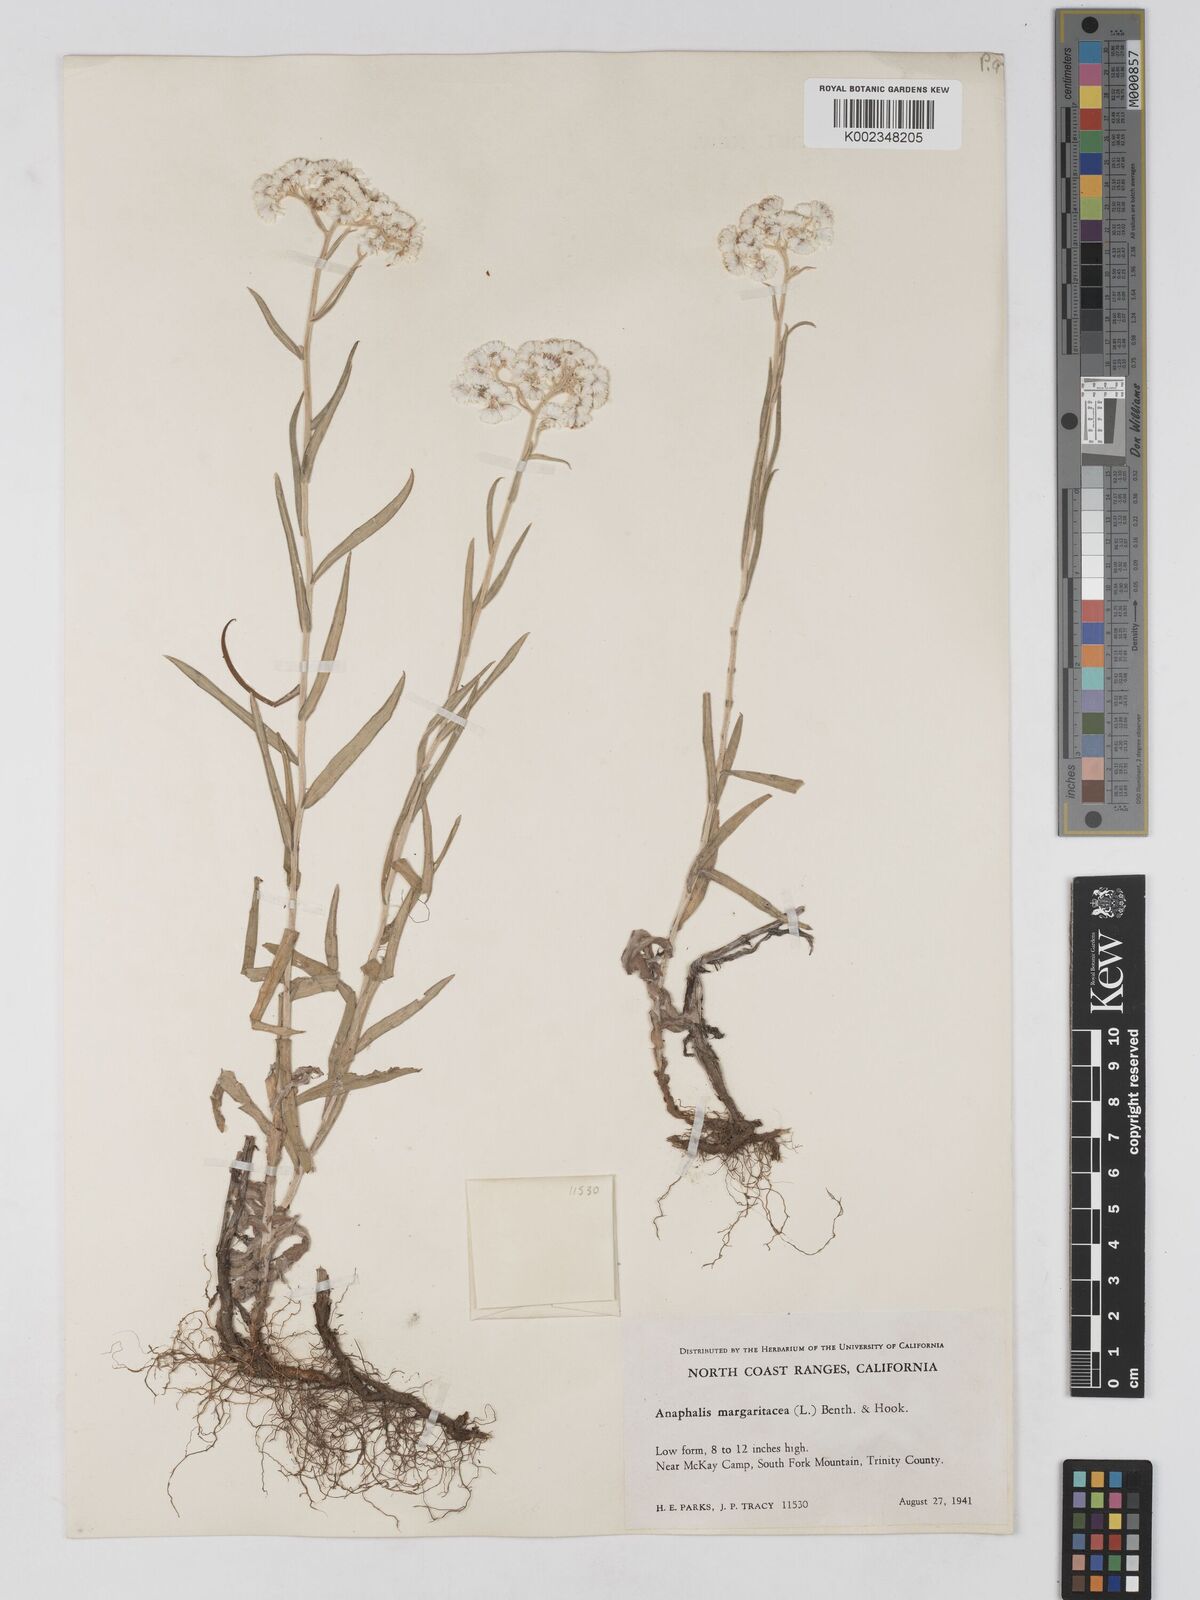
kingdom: Plantae
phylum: Tracheophyta
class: Magnoliopsida
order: Asterales
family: Asteraceae
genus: Anaphalis
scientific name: Anaphalis margaritacea
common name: Pearly everlasting
